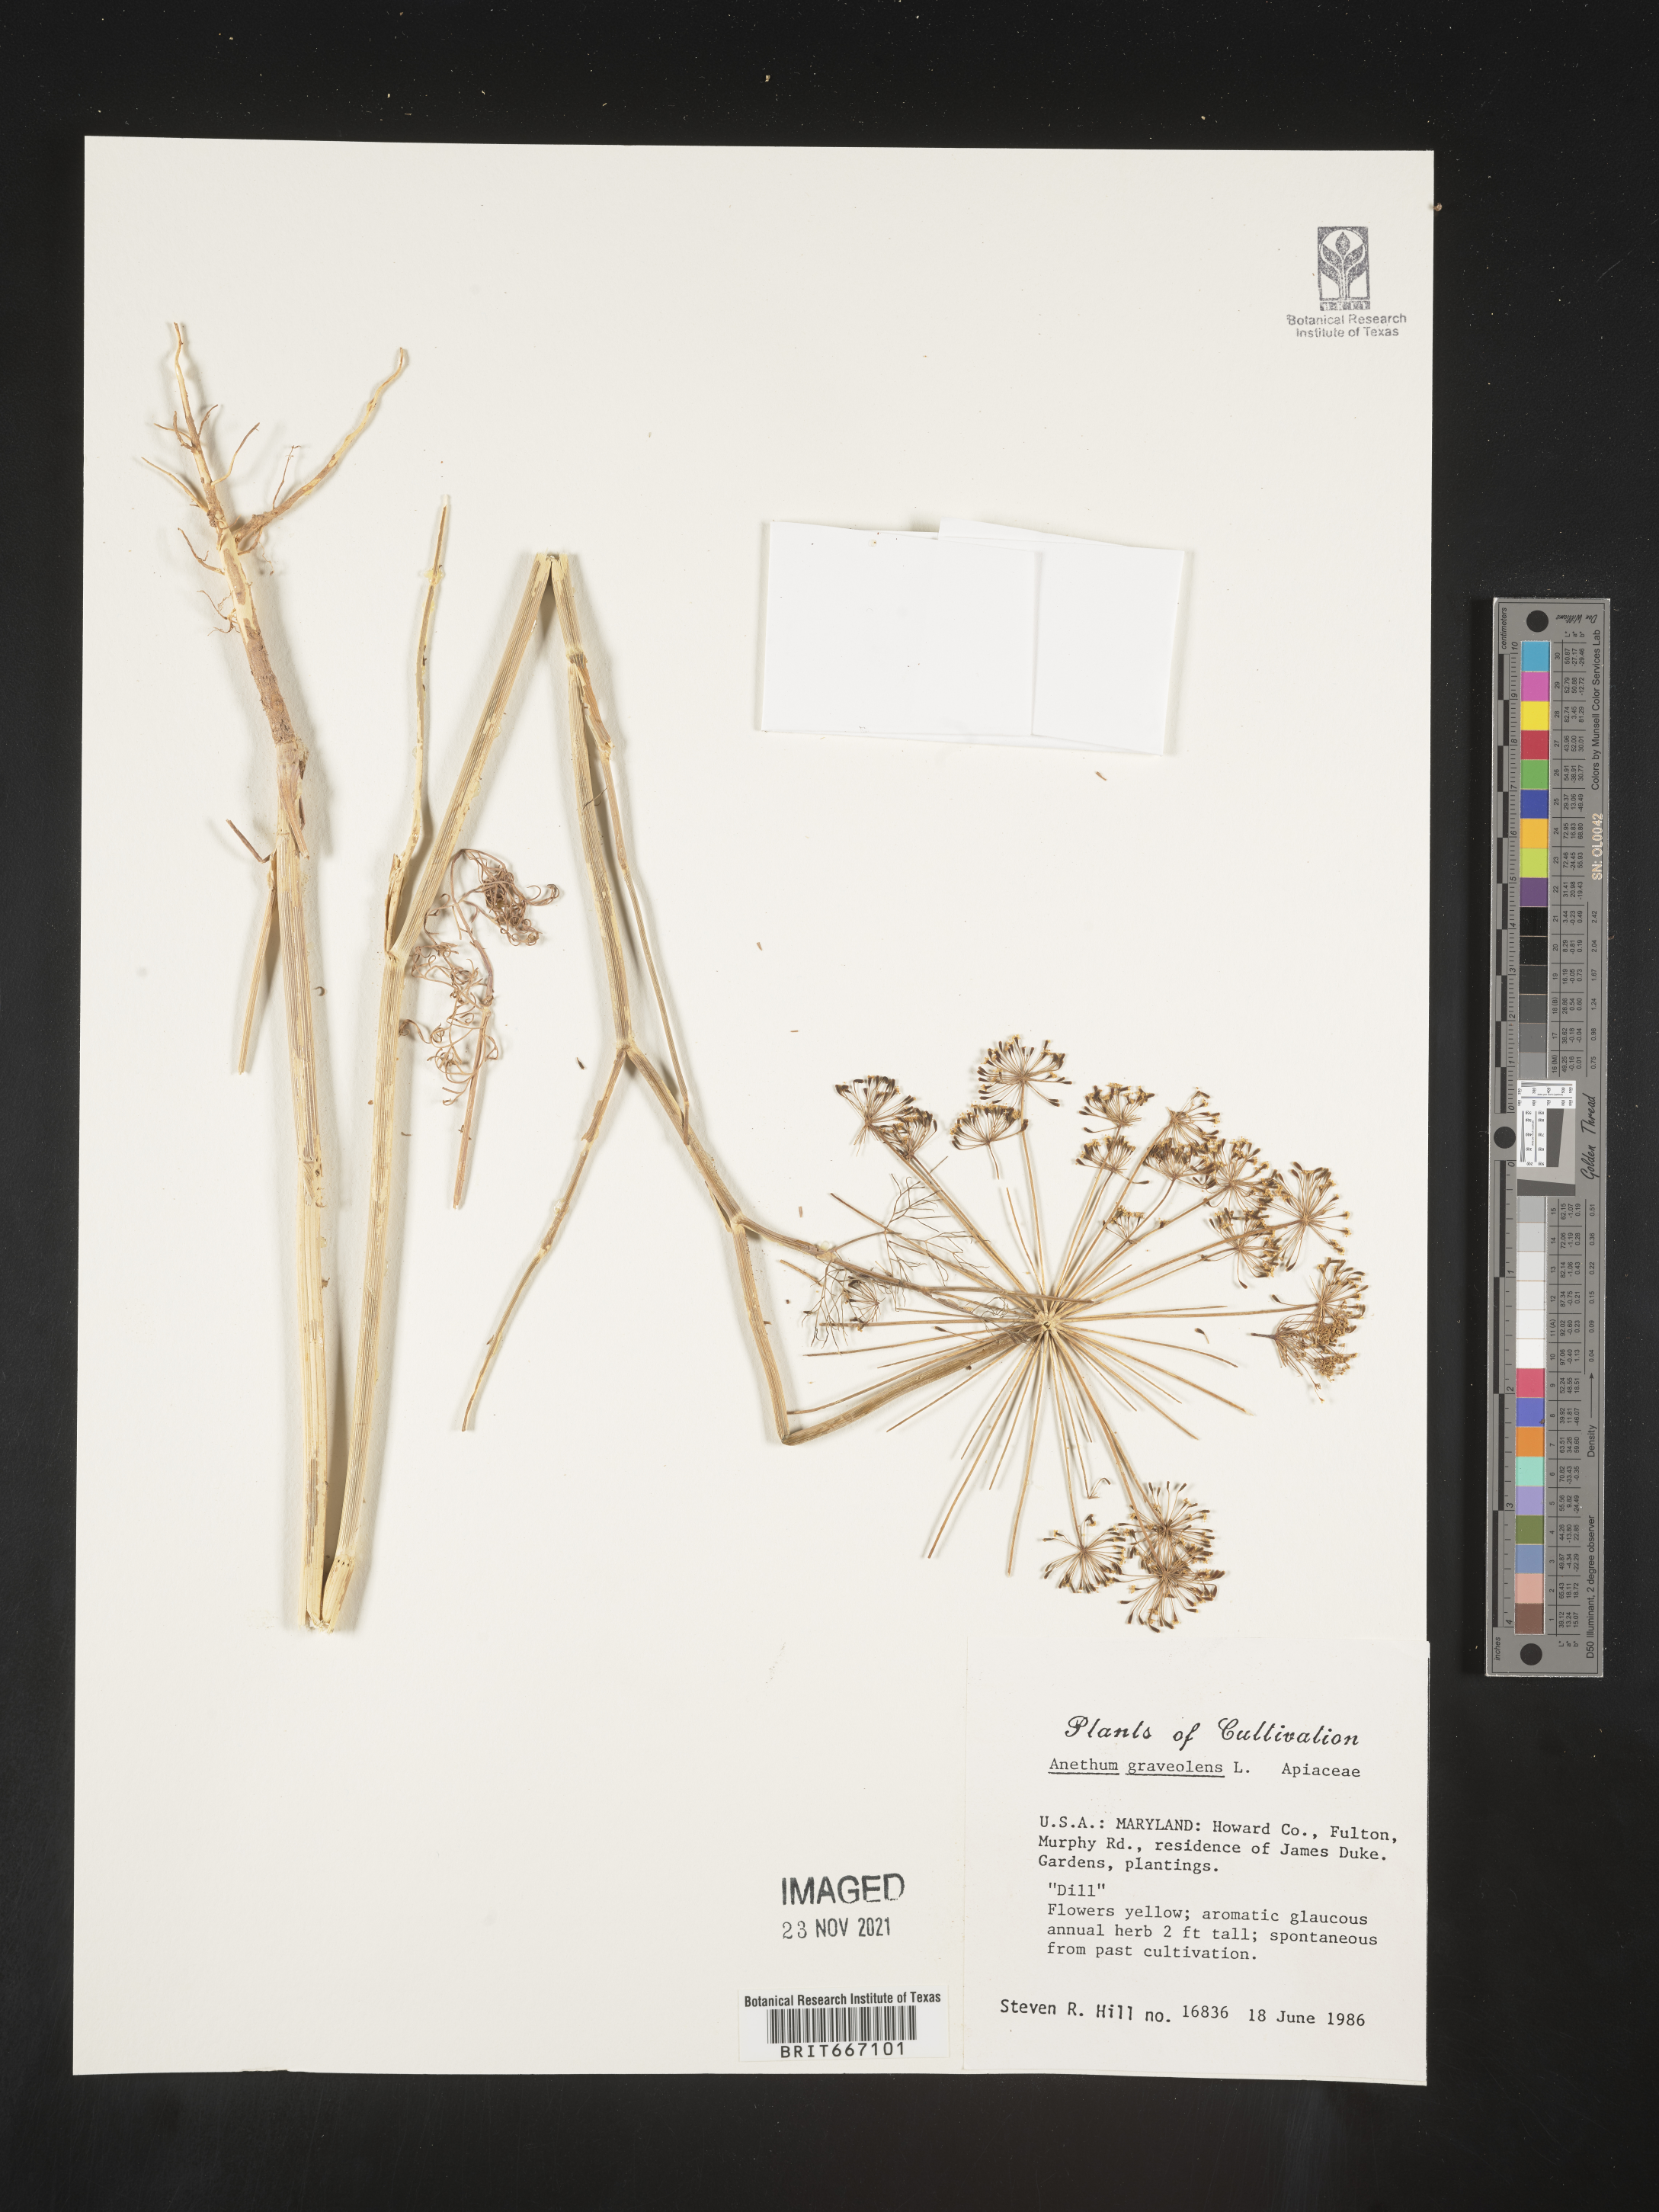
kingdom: Plantae
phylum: Tracheophyta
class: Magnoliopsida
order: Apiales
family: Apiaceae
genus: Anethum
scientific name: Anethum
